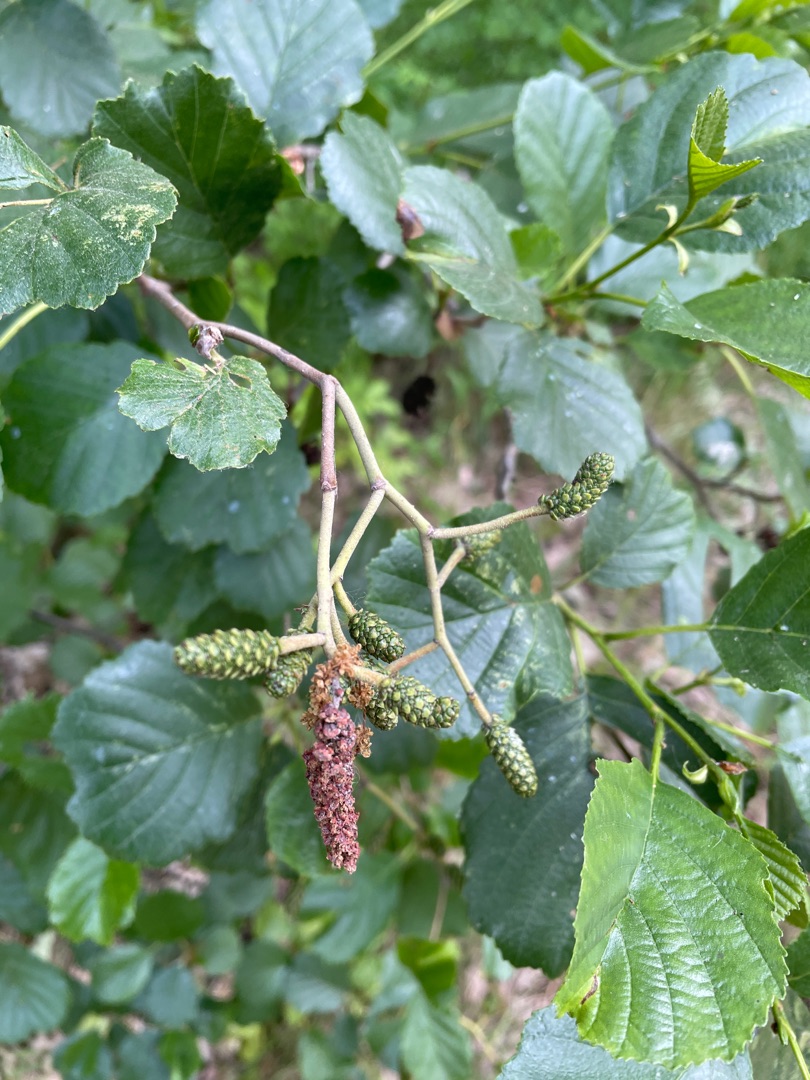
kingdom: Plantae
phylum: Tracheophyta
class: Magnoliopsida
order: Fagales
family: Betulaceae
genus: Alnus
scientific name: Alnus glutinosa
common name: Rød-el
